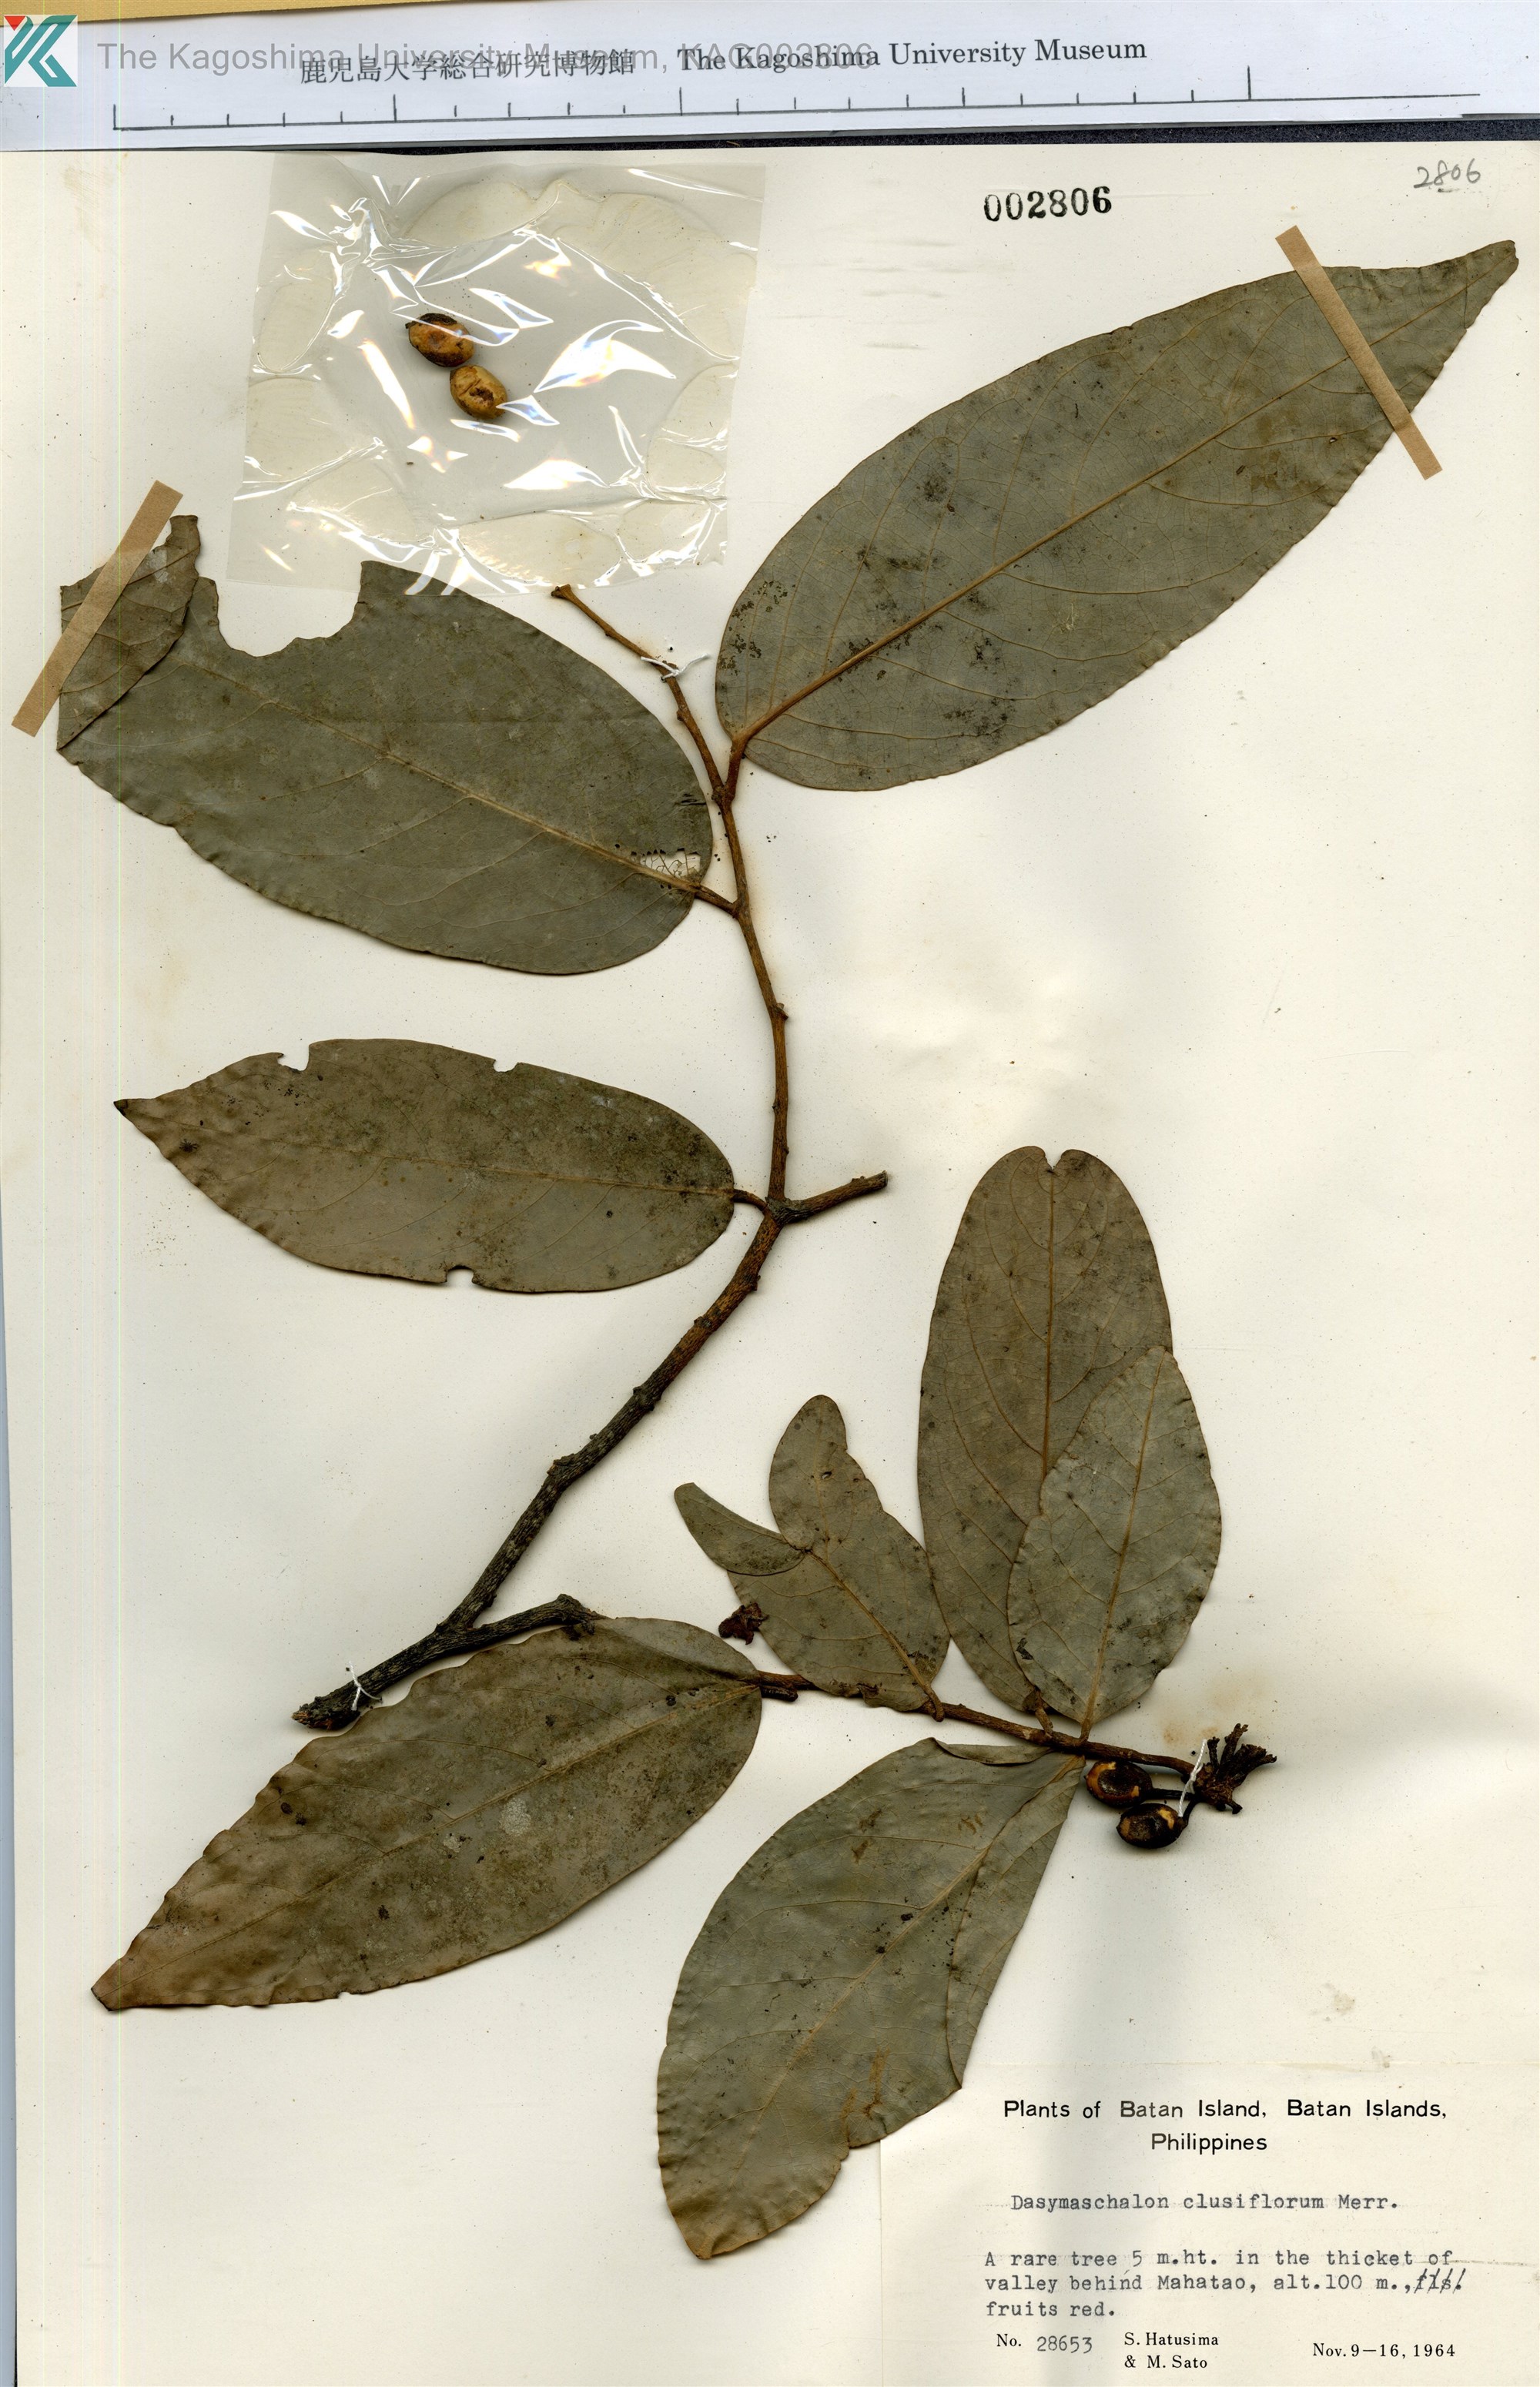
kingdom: Plantae
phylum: Tracheophyta
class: Magnoliopsida
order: Magnoliales
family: Annonaceae
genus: Dasymaschalon
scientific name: Dasymaschalon clusiflorum
